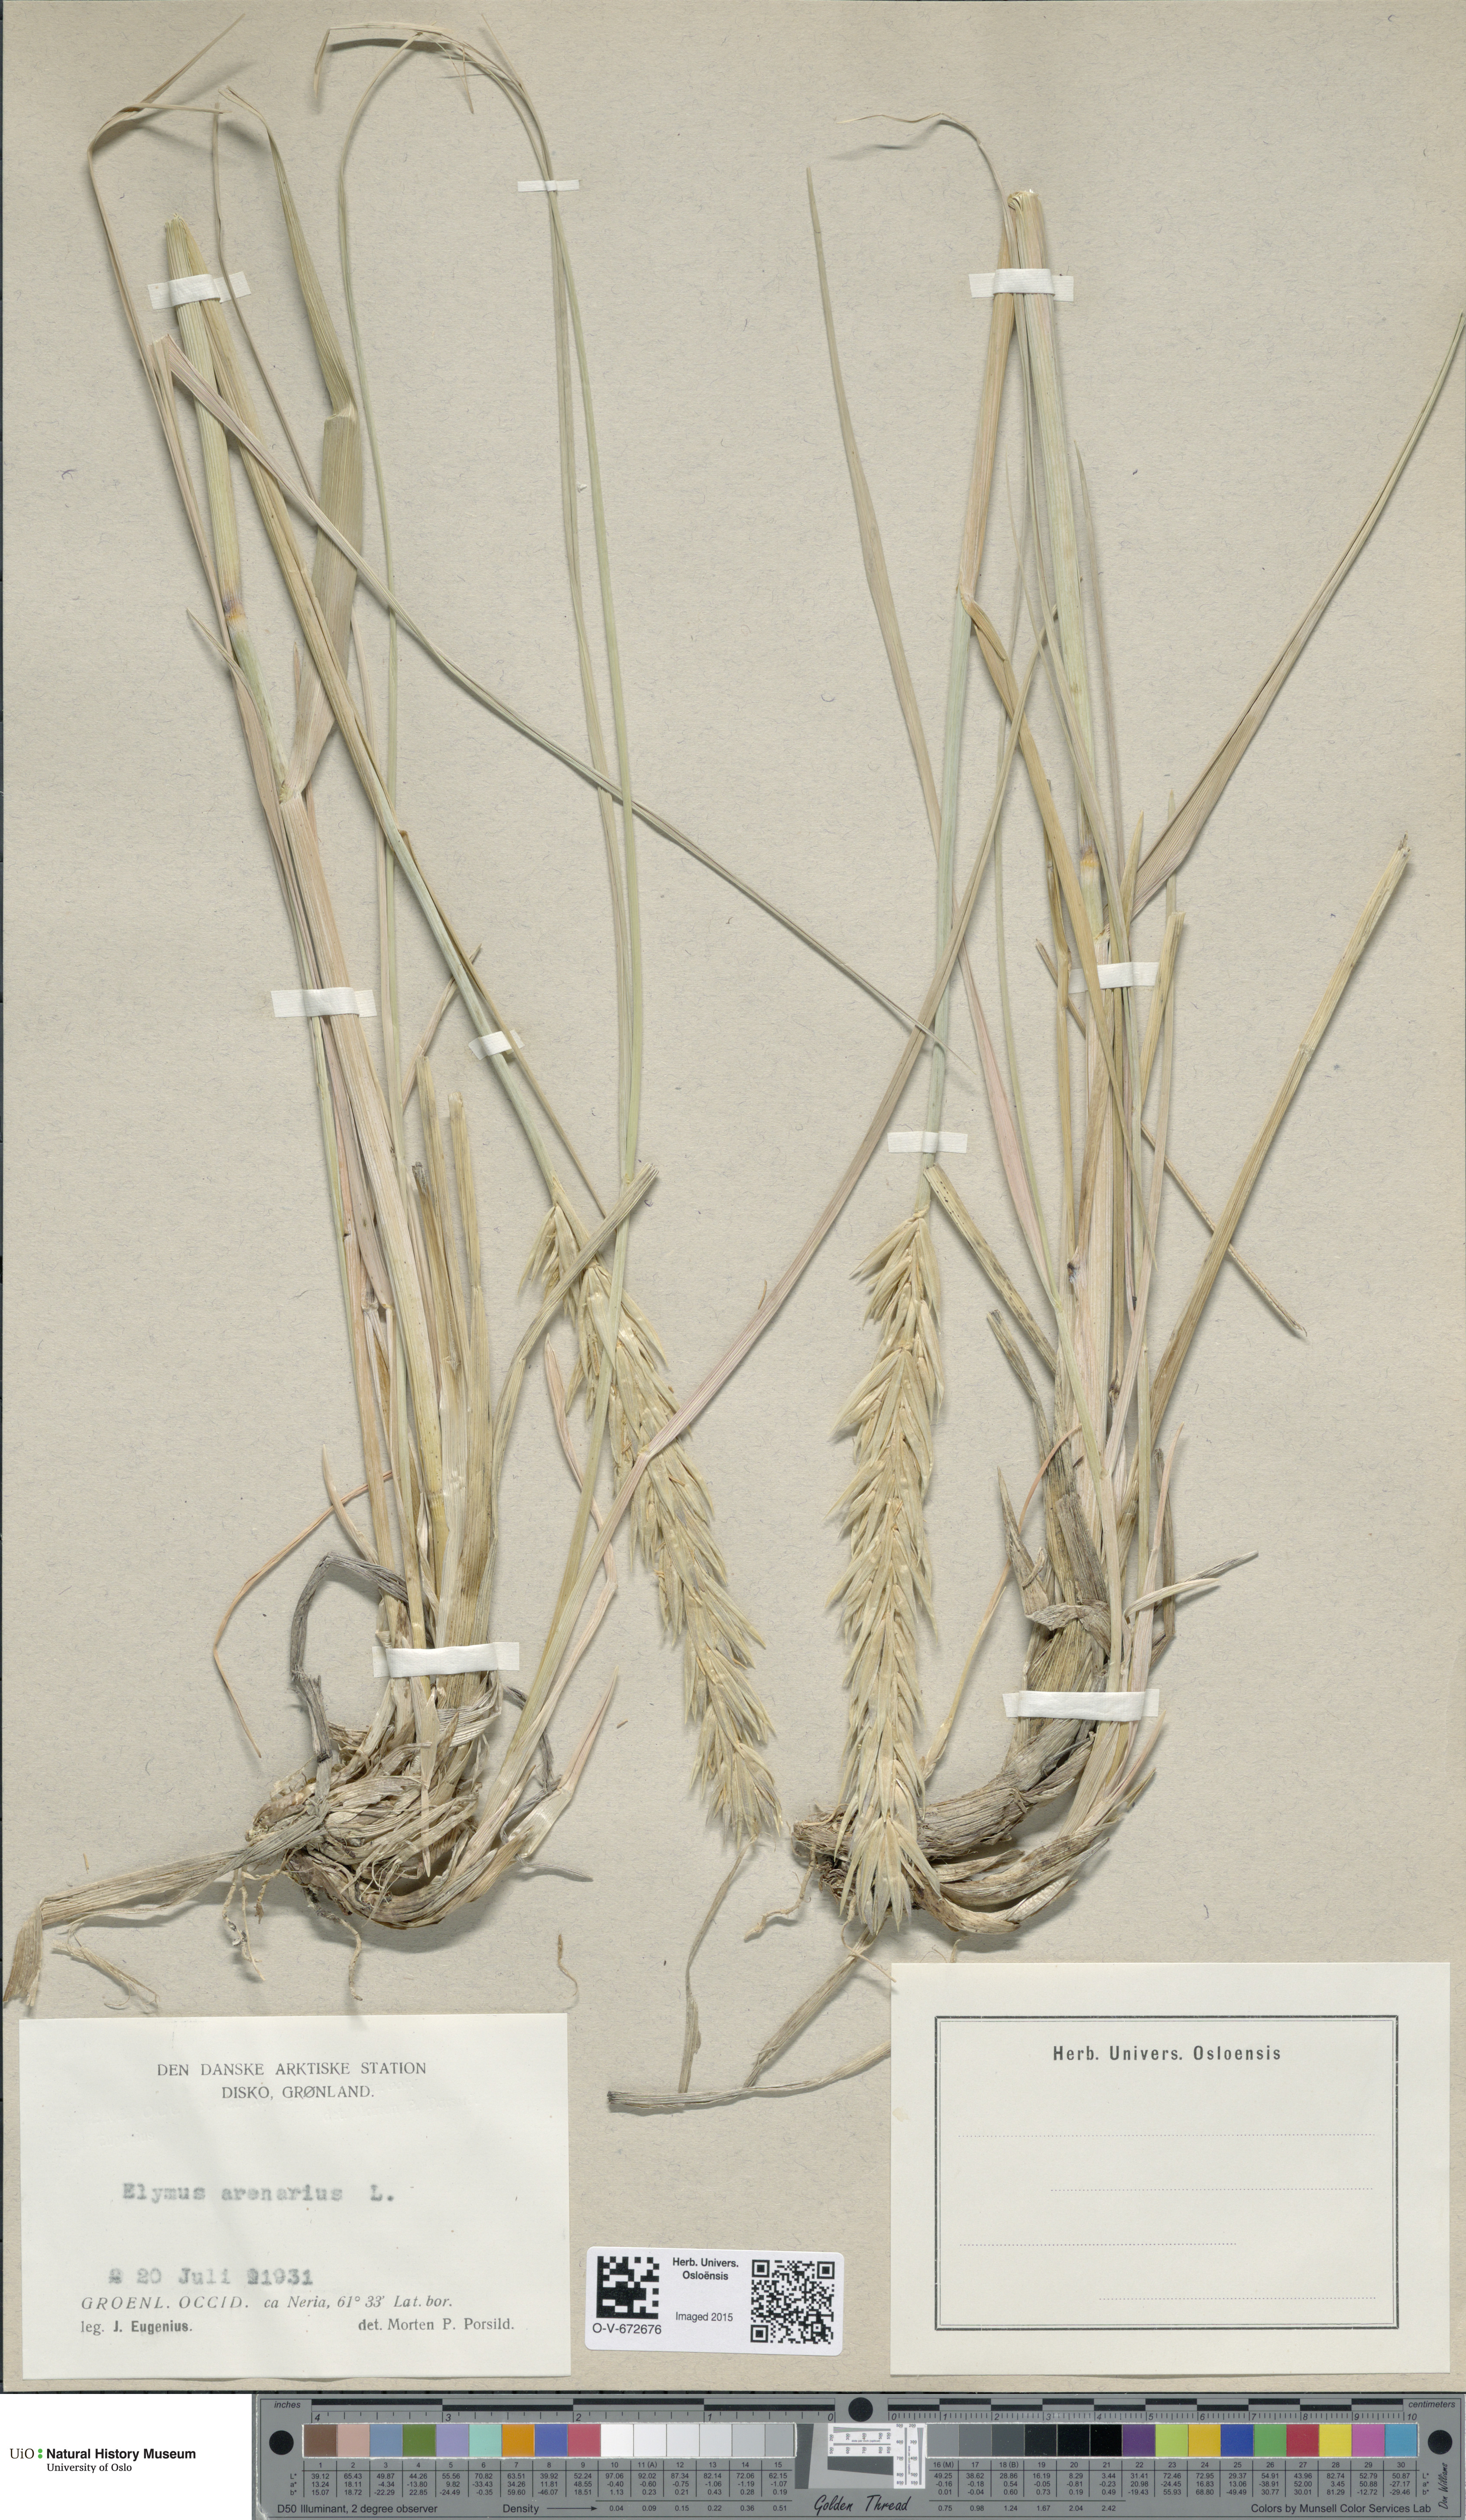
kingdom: Plantae
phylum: Tracheophyta
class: Liliopsida
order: Poales
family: Poaceae
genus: Leymus
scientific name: Leymus arenarius
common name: Lyme-grass
